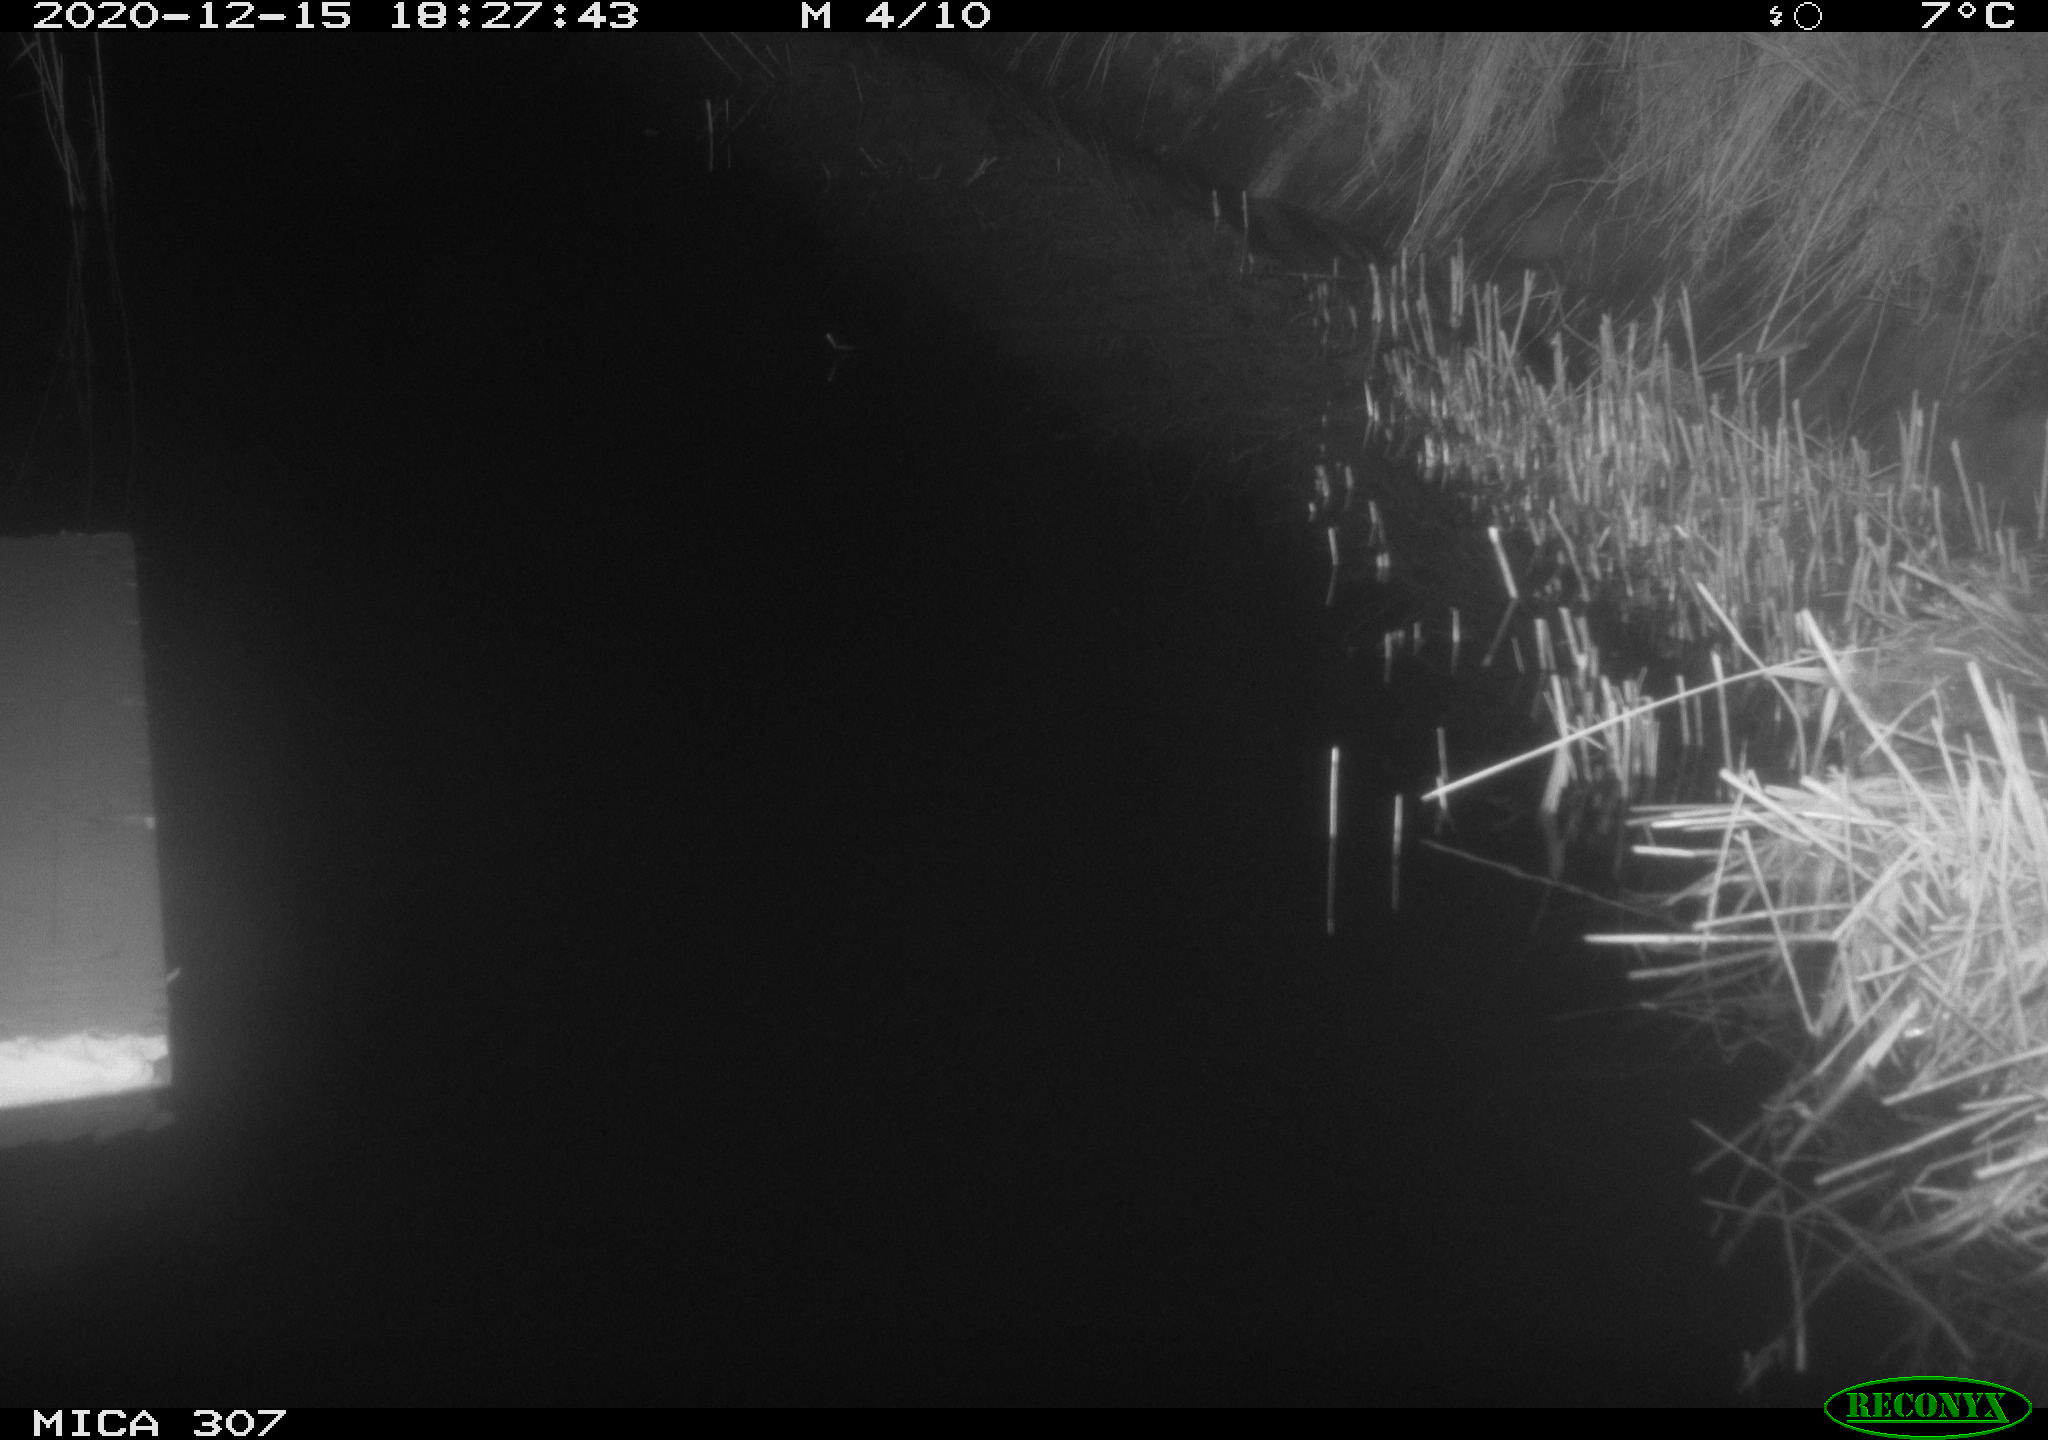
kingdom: Animalia
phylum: Chordata
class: Mammalia
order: Rodentia
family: Muridae
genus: Rattus
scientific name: Rattus norvegicus
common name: Brown rat
